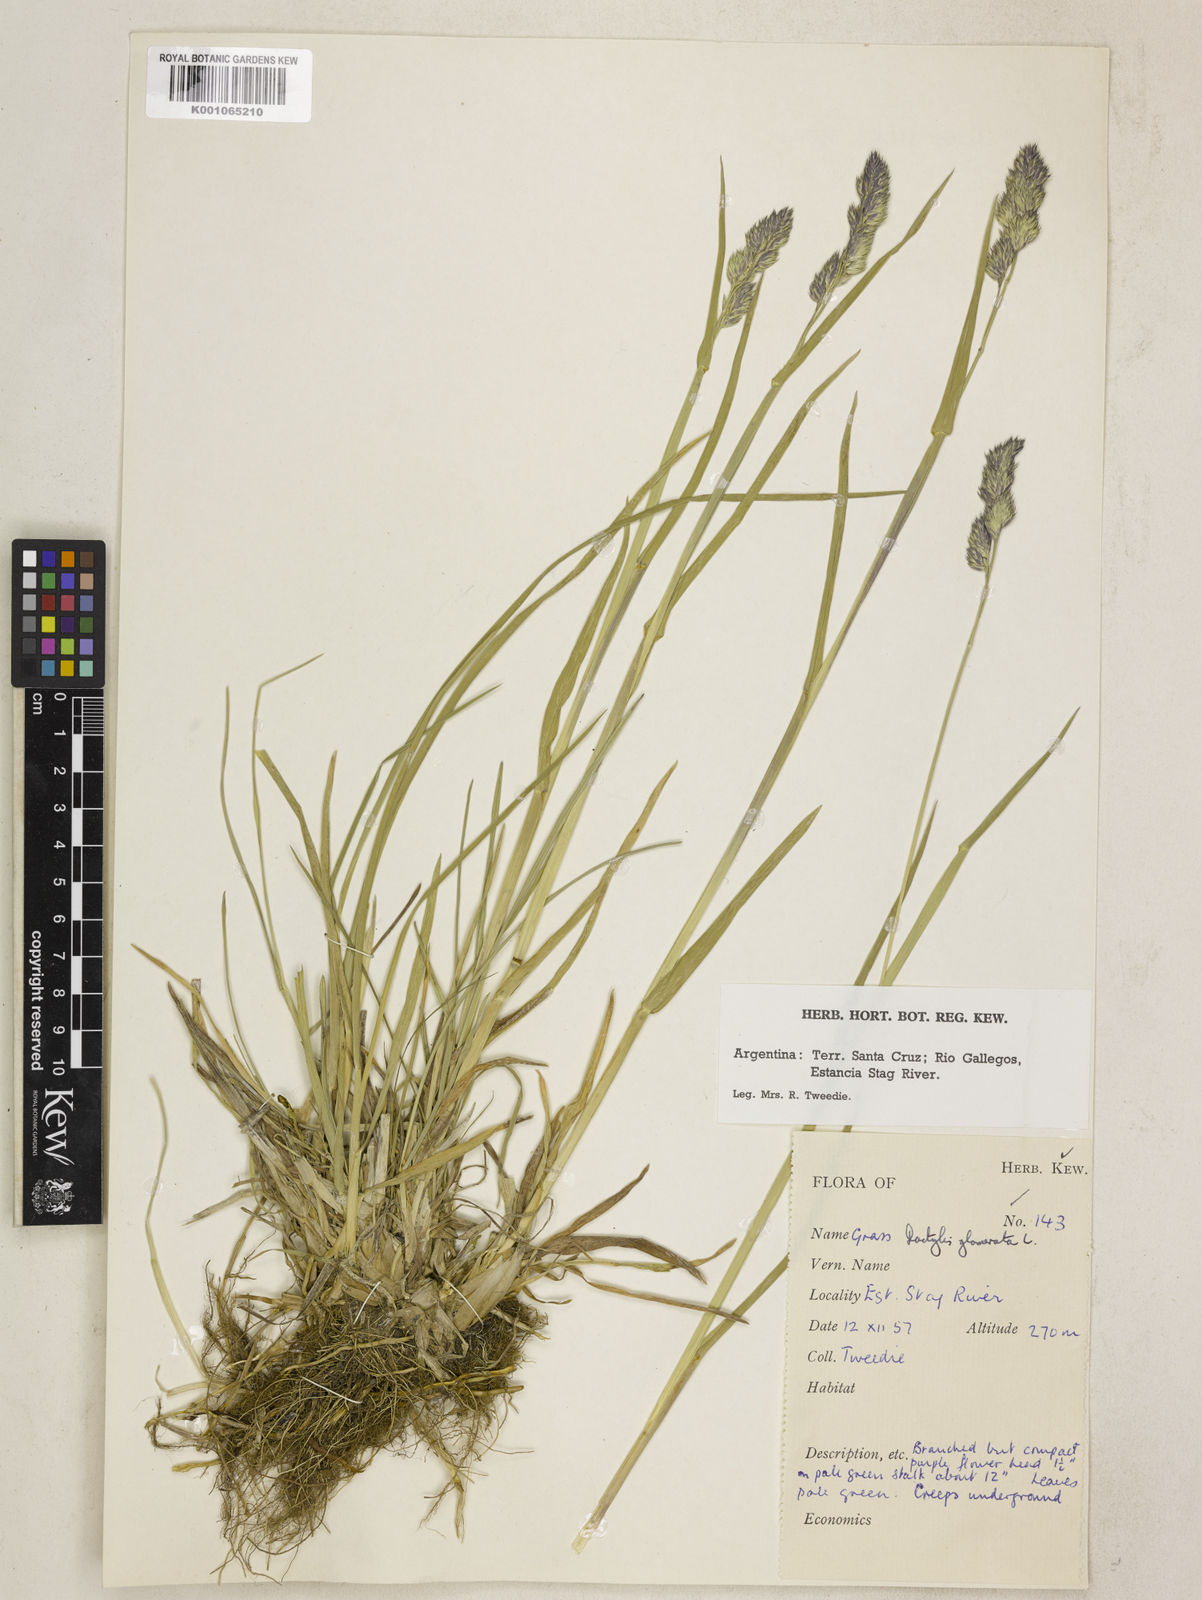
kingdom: Plantae
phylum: Tracheophyta
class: Liliopsida
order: Poales
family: Poaceae
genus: Dactylis
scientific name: Dactylis glomerata
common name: Orchardgrass
